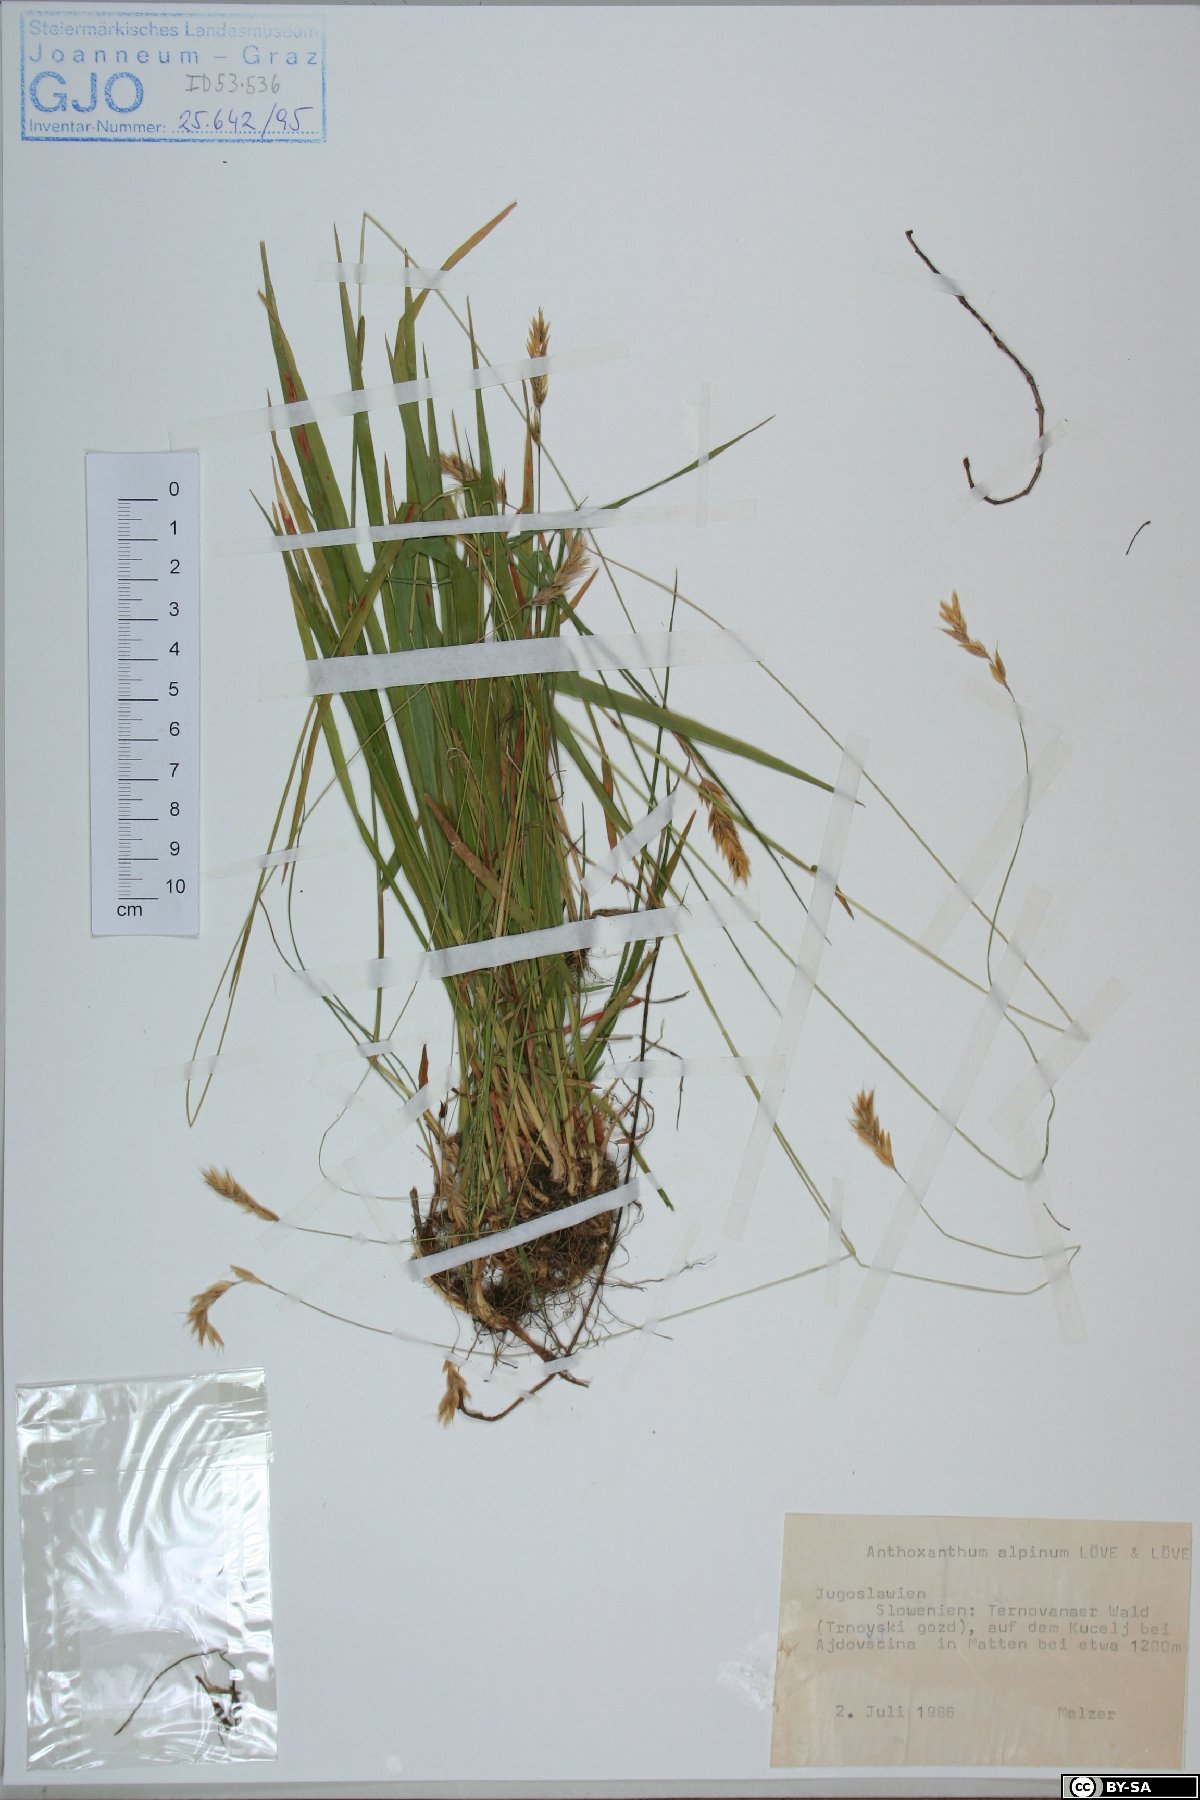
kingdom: Plantae
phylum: Tracheophyta
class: Liliopsida
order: Poales
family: Poaceae
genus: Anthoxanthum
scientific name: Anthoxanthum nipponicum
